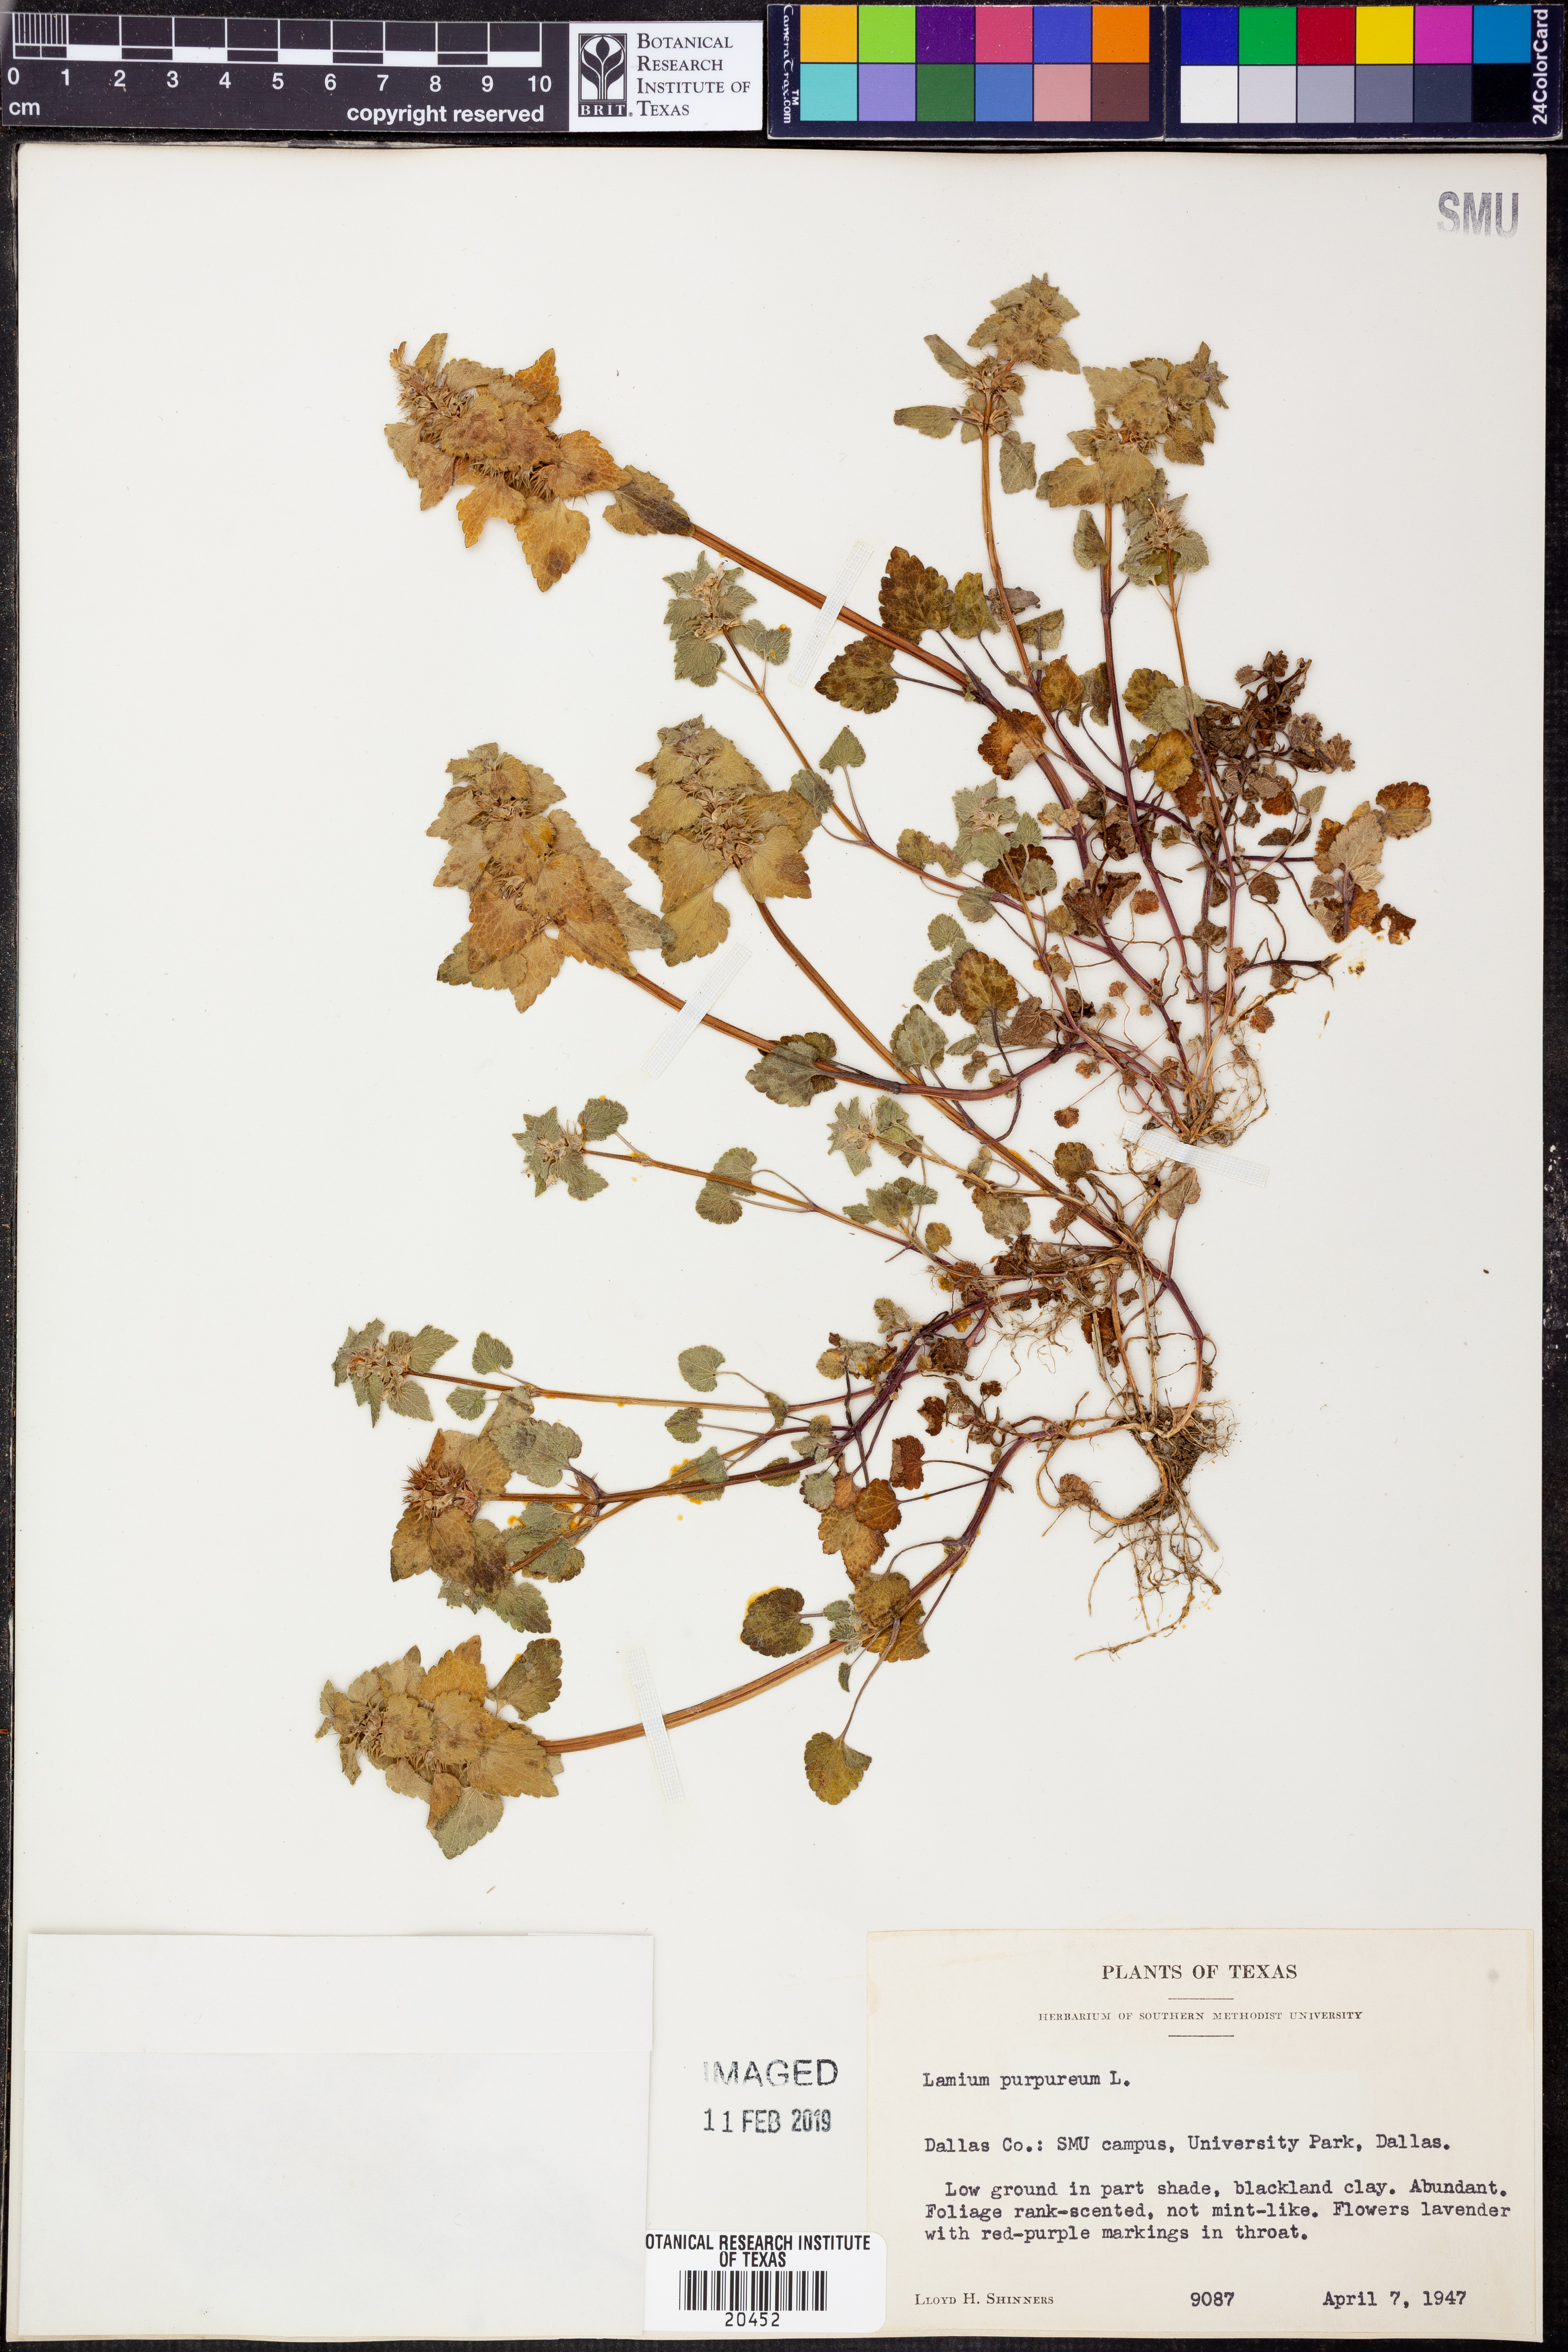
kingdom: Plantae
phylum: Tracheophyta
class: Magnoliopsida
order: Lamiales
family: Lamiaceae
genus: Lamium
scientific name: Lamium purpureum
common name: Red dead-nettle
